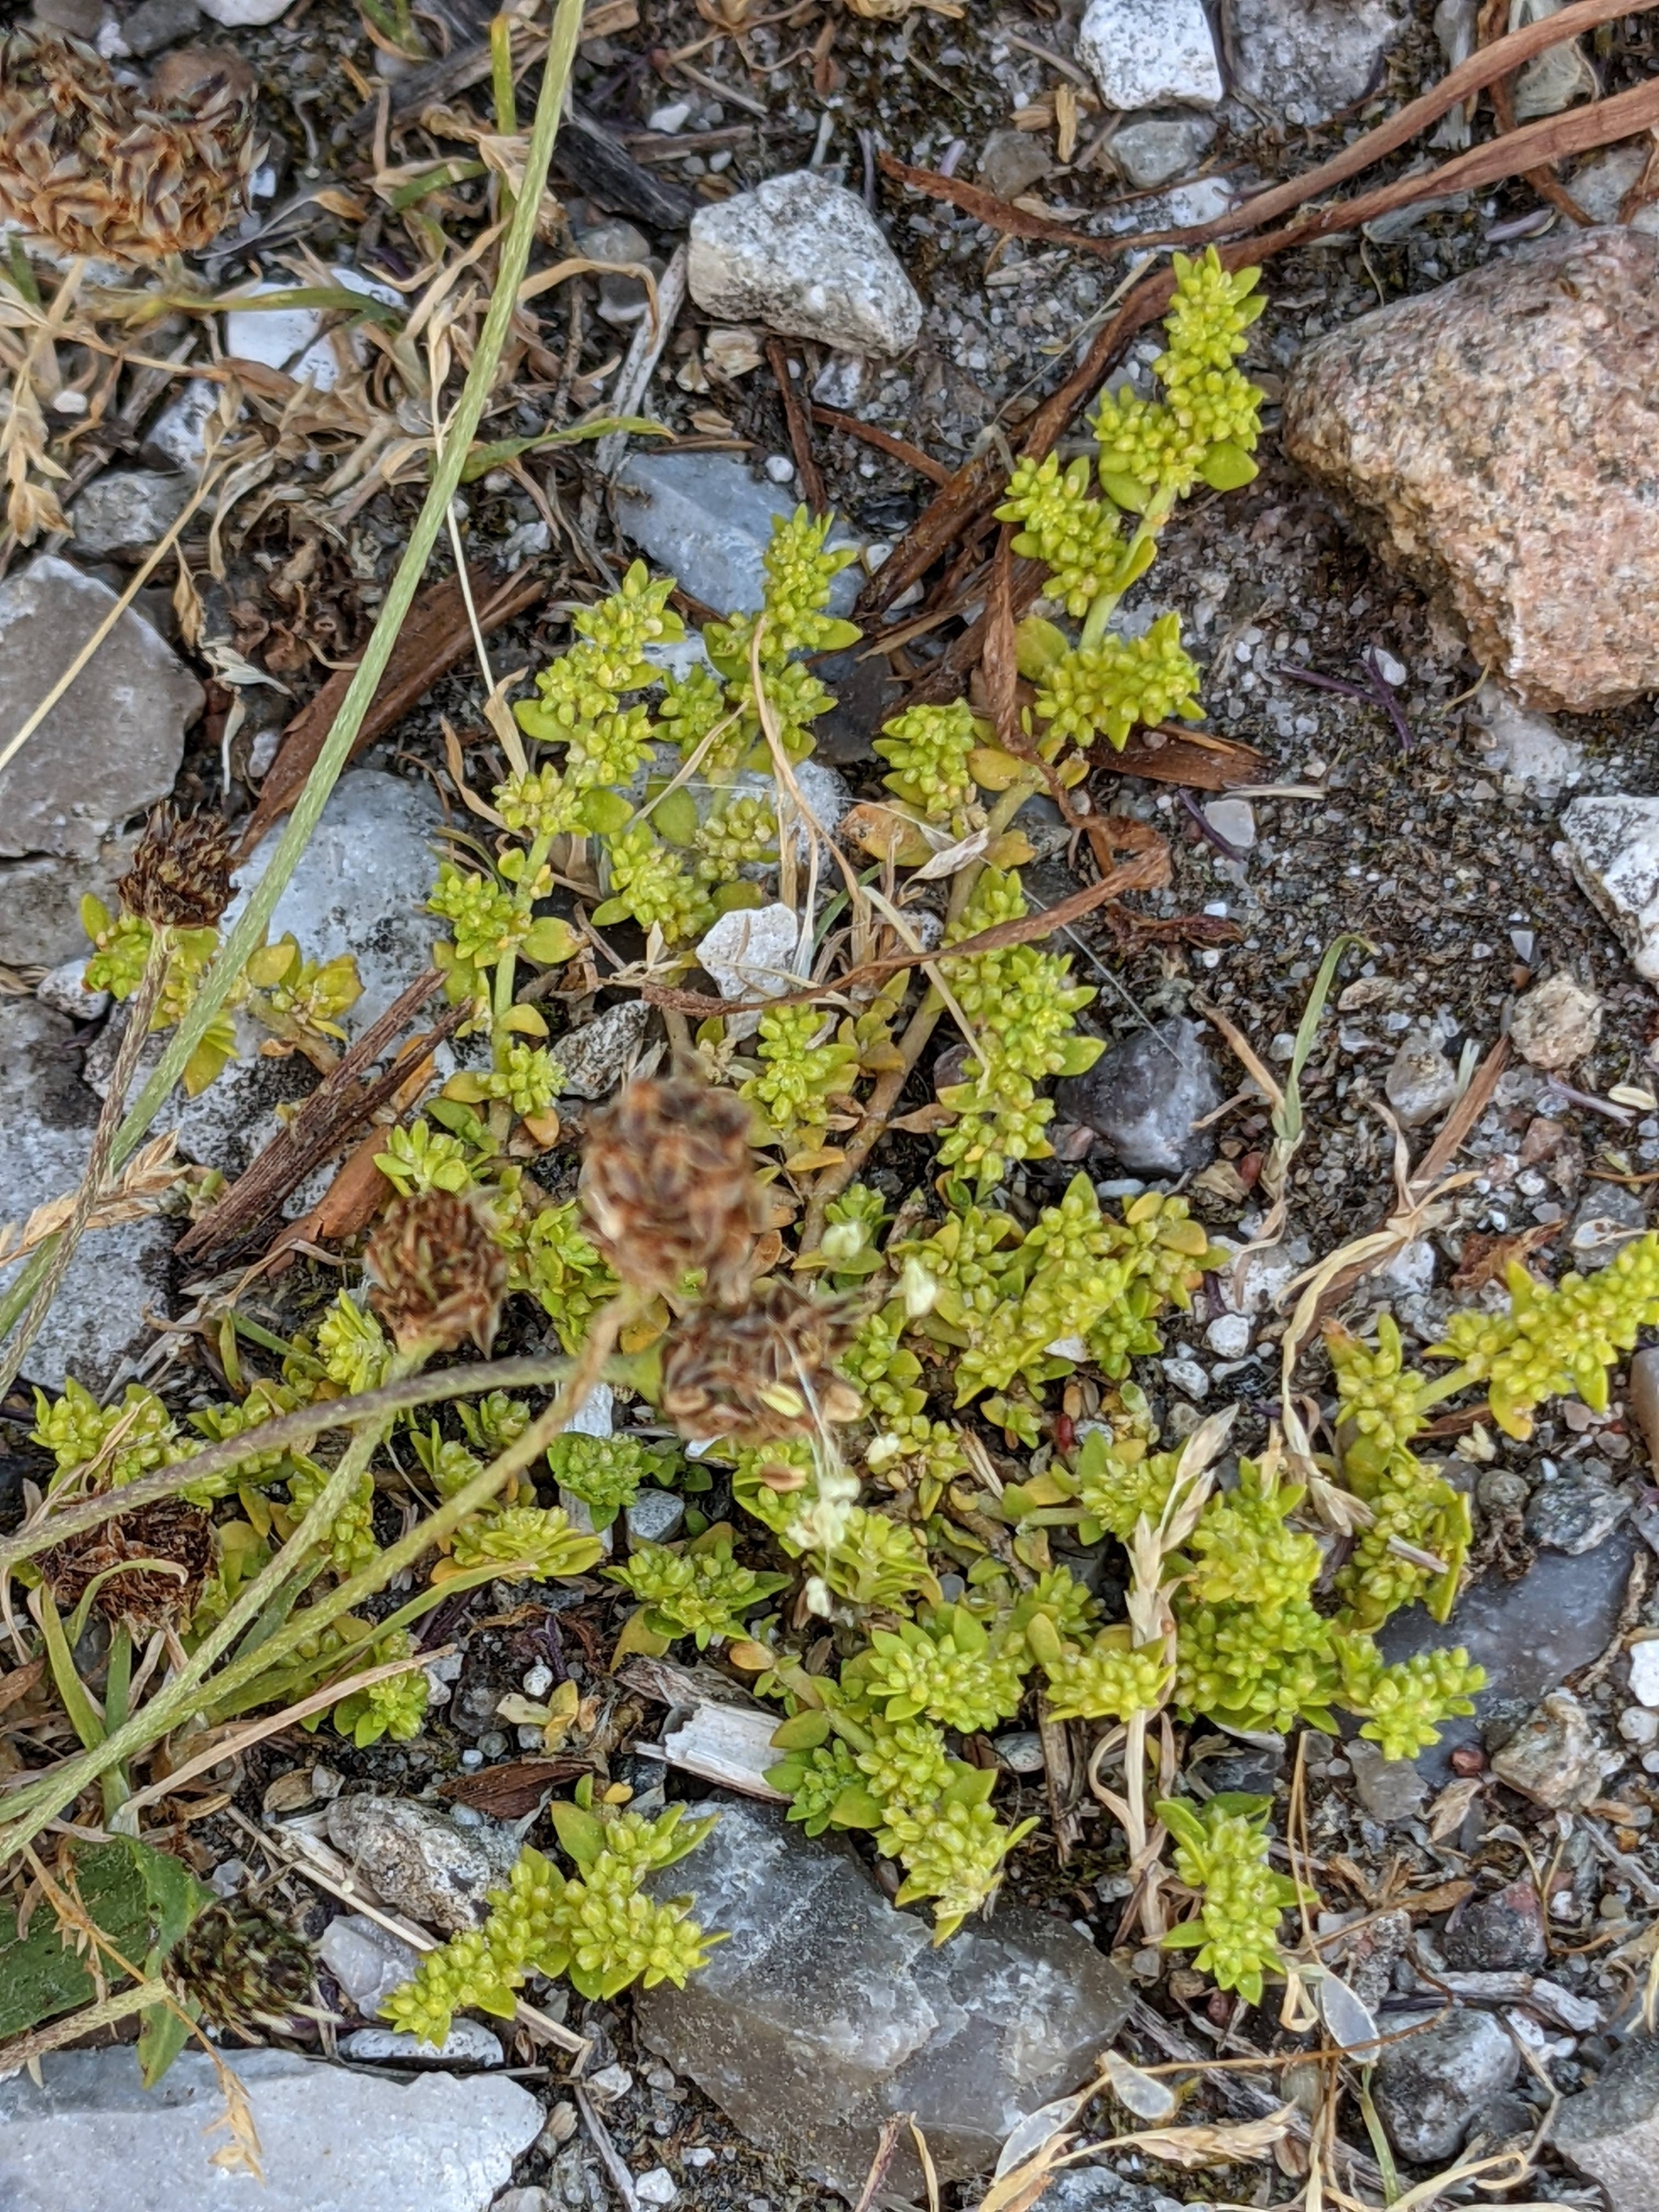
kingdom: Plantae
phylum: Tracheophyta
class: Magnoliopsida
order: Caryophyllales
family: Caryophyllaceae
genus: Herniaria
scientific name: Herniaria glabra
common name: Brudurt
